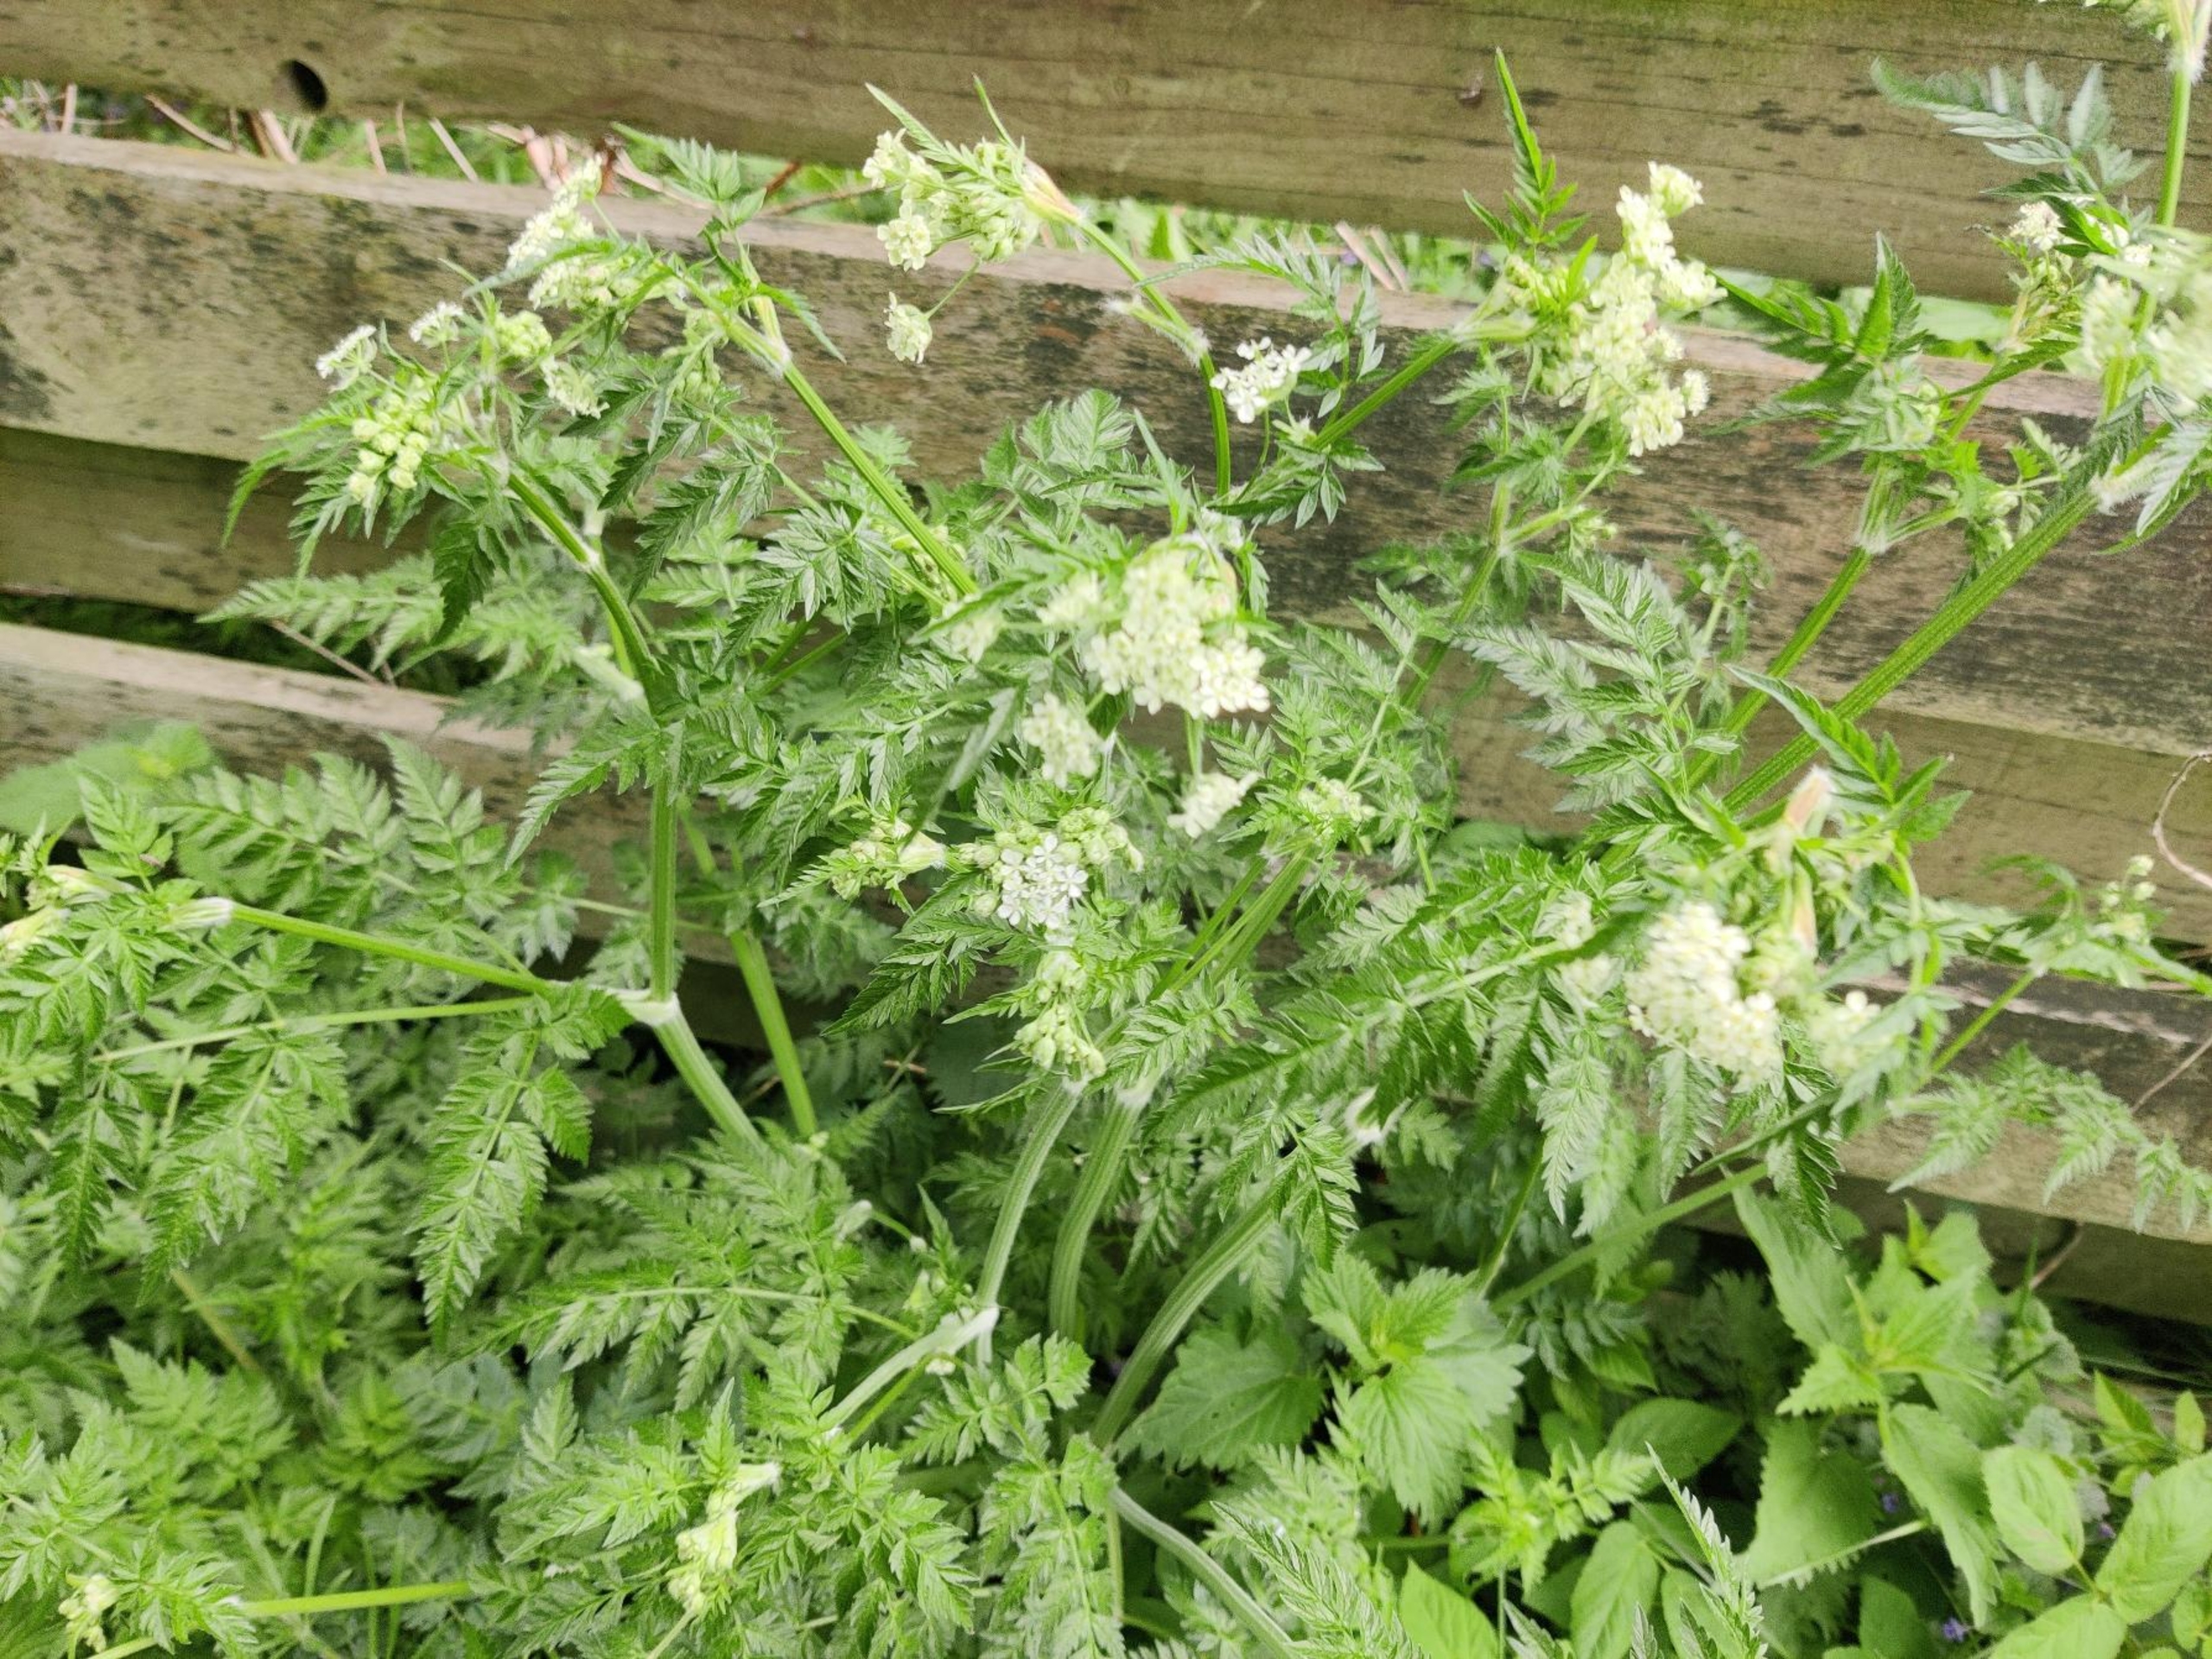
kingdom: Plantae
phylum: Tracheophyta
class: Magnoliopsida
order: Apiales
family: Apiaceae
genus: Anthriscus
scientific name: Anthriscus sylvestris
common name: Vild kørvel
